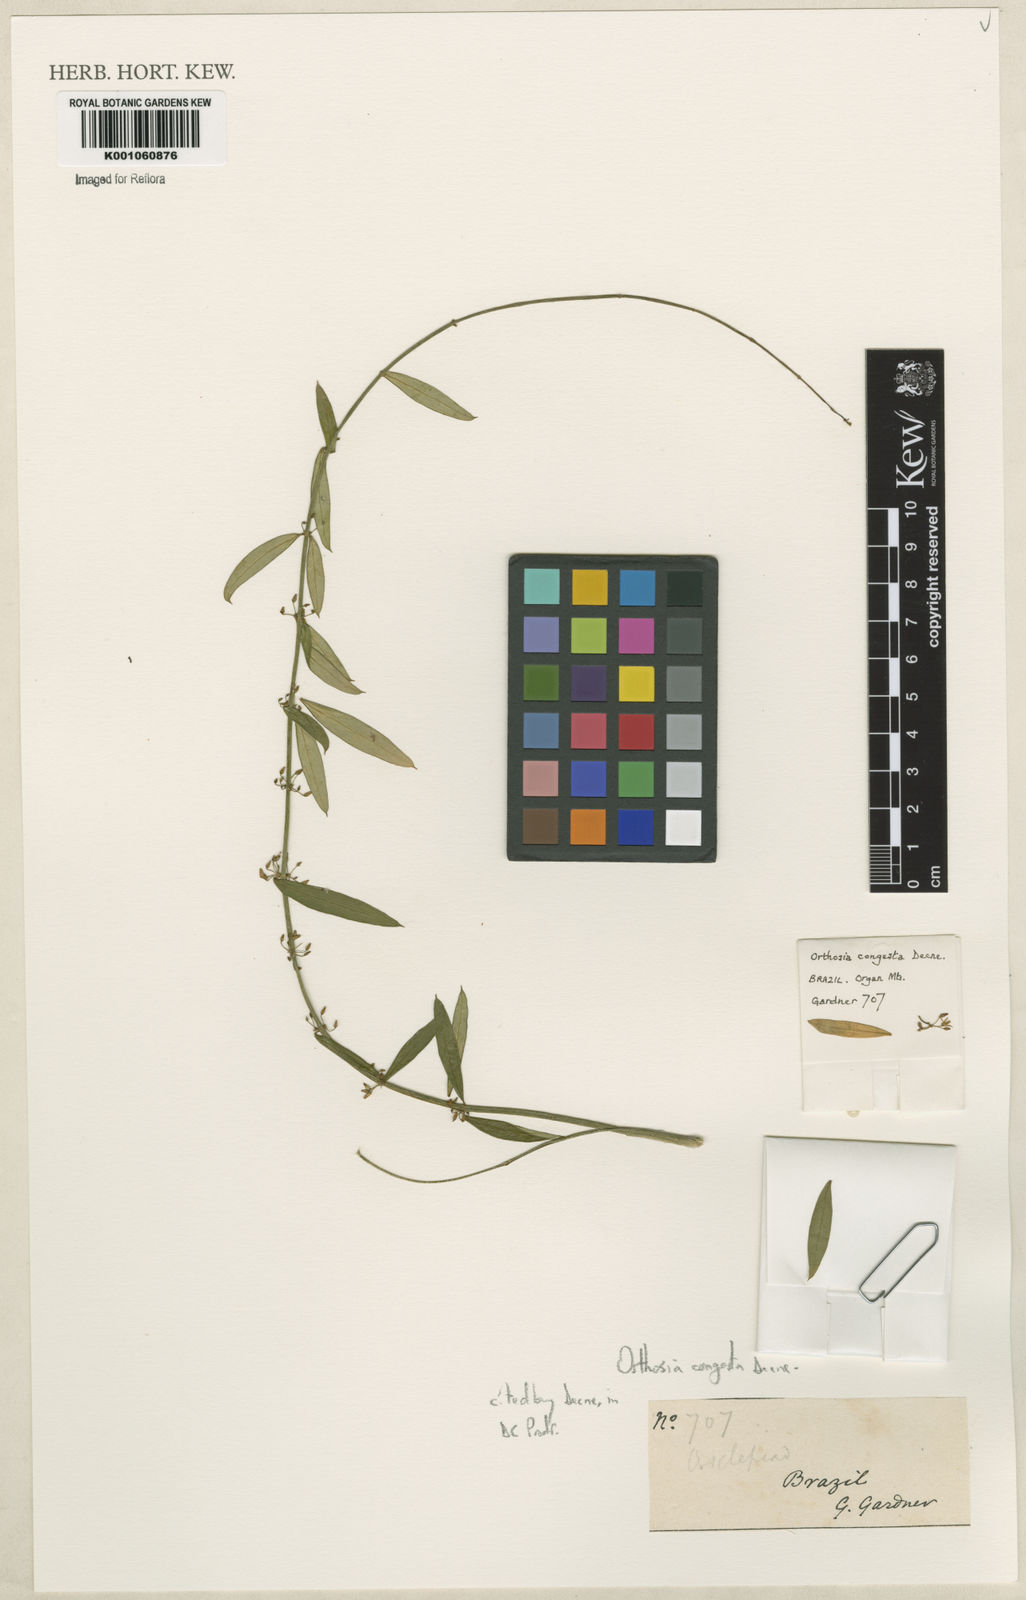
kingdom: Plantae
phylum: Tracheophyta
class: Magnoliopsida
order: Gentianales
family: Apocynaceae
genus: Orthosia
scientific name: Orthosia congesta
